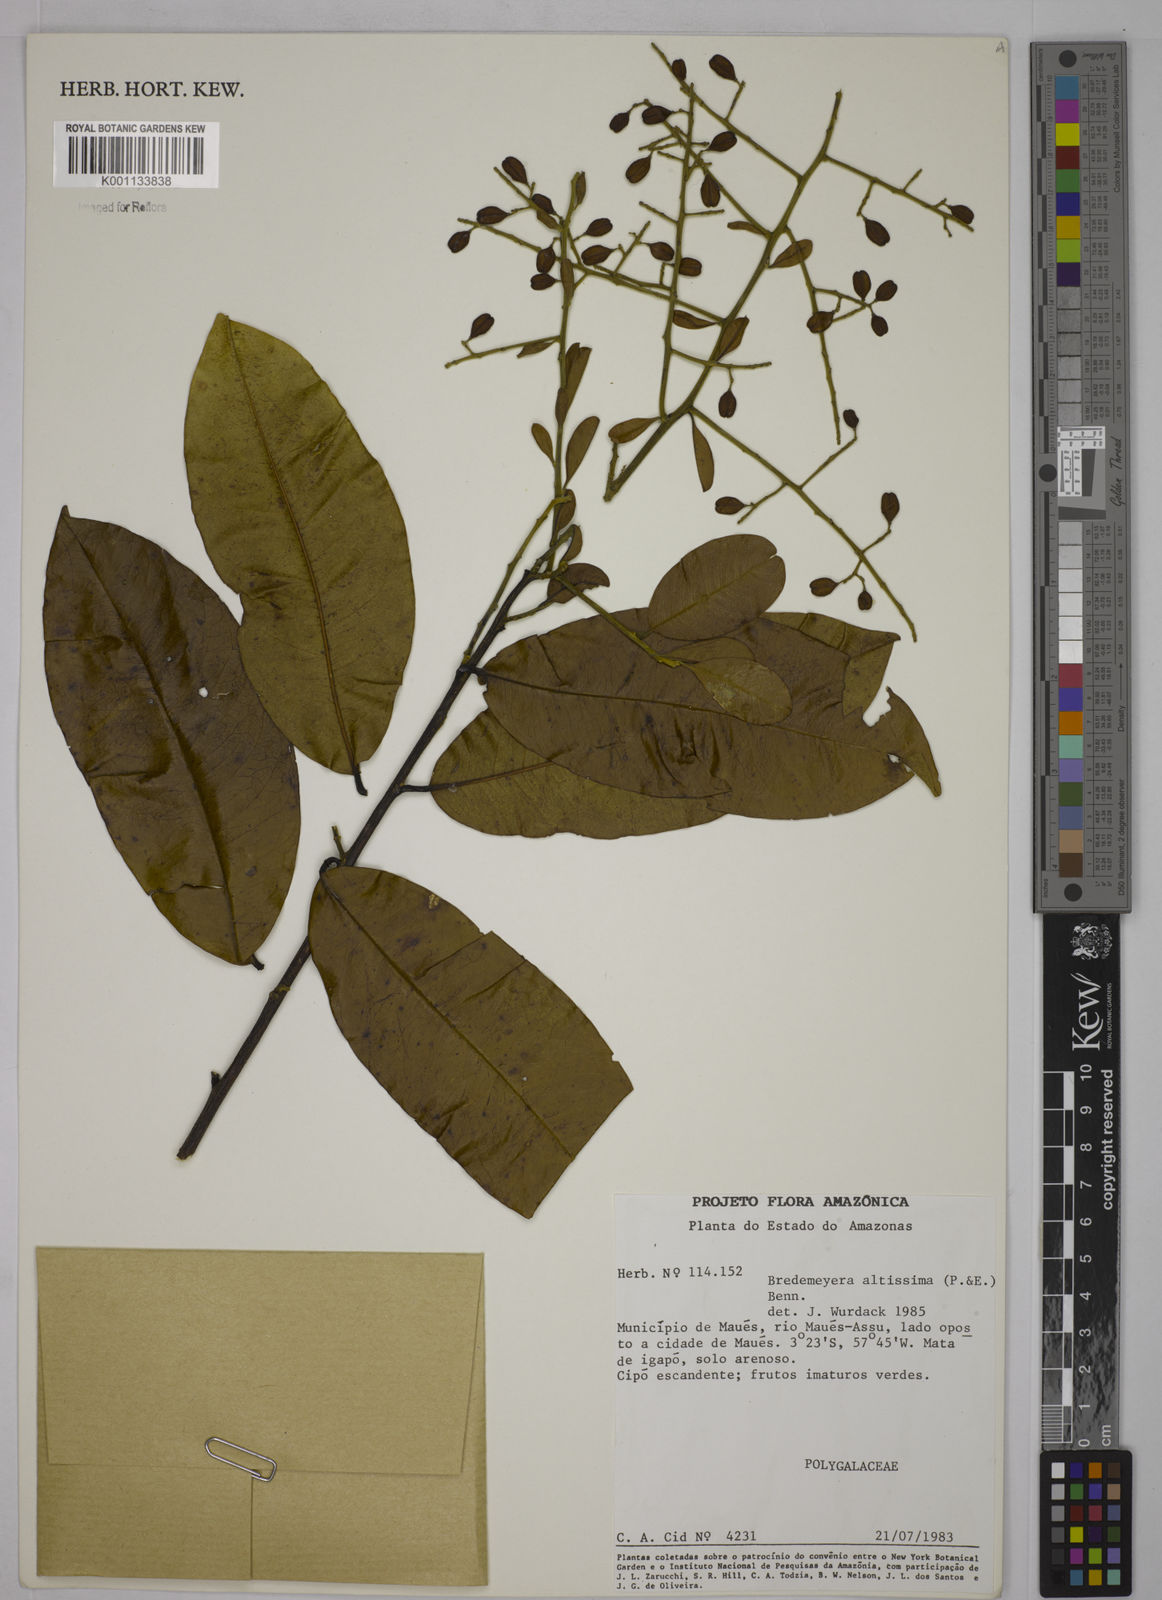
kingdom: Plantae
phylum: Tracheophyta
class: Magnoliopsida
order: Fabales
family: Polygalaceae
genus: Bredemeyera
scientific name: Bredemeyera divaricata
